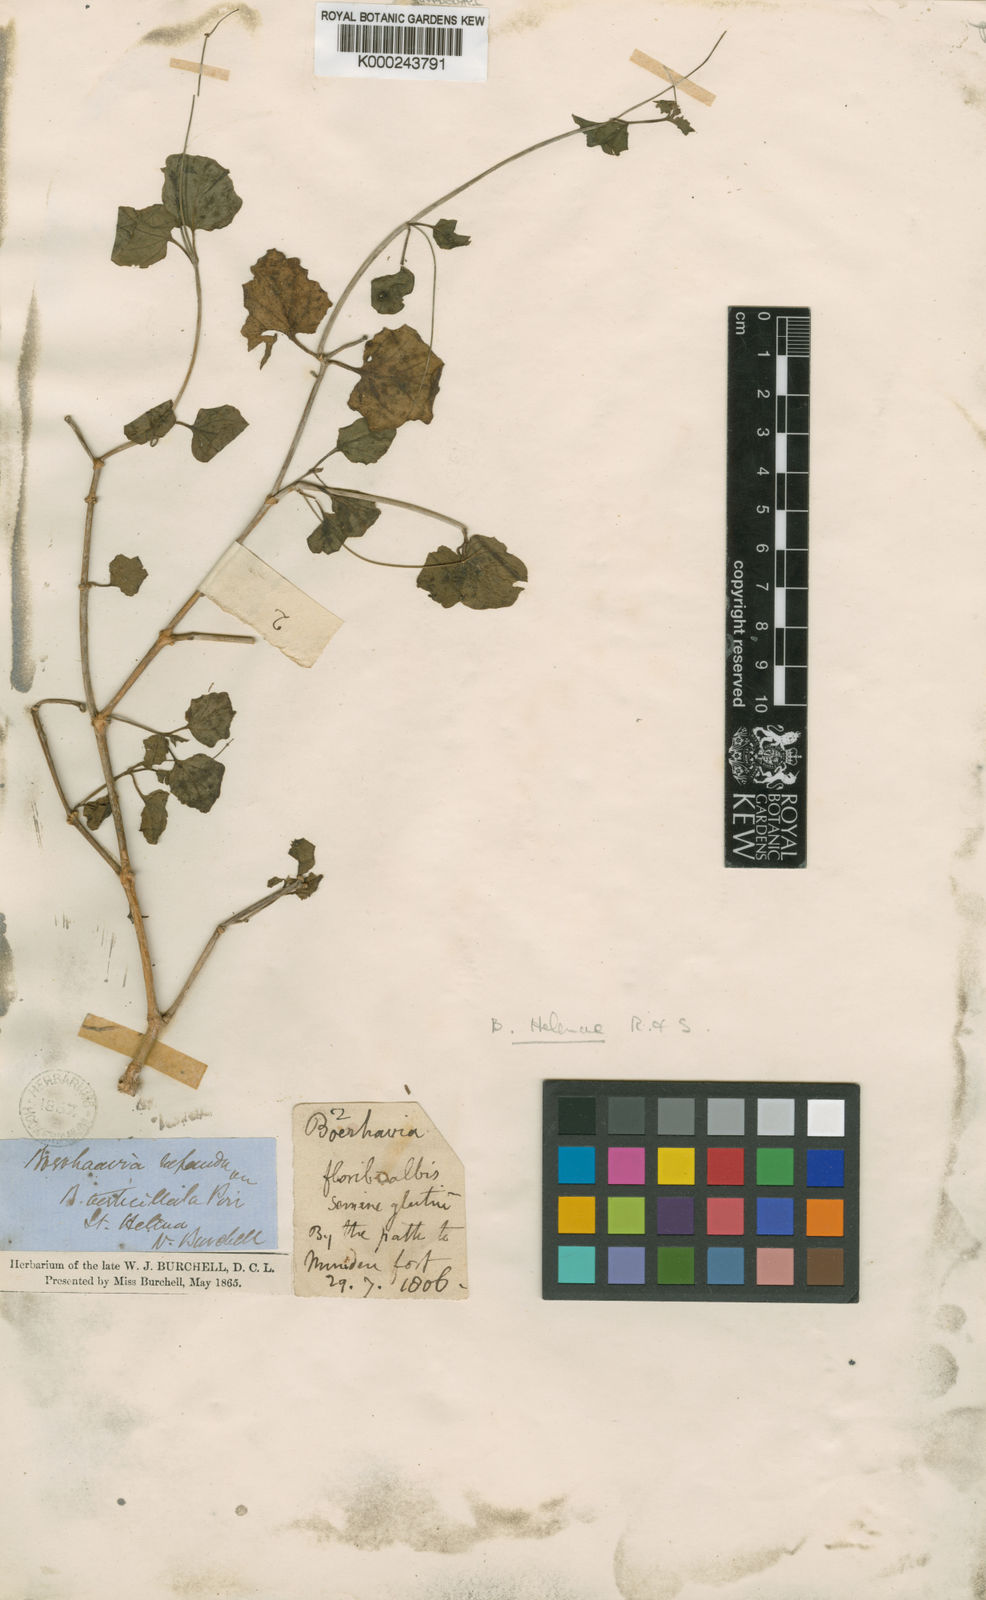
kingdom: Plantae
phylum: Tracheophyta
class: Magnoliopsida
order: Caryophyllales
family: Nyctaginaceae
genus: Commicarpus
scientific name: Commicarpus helenae
